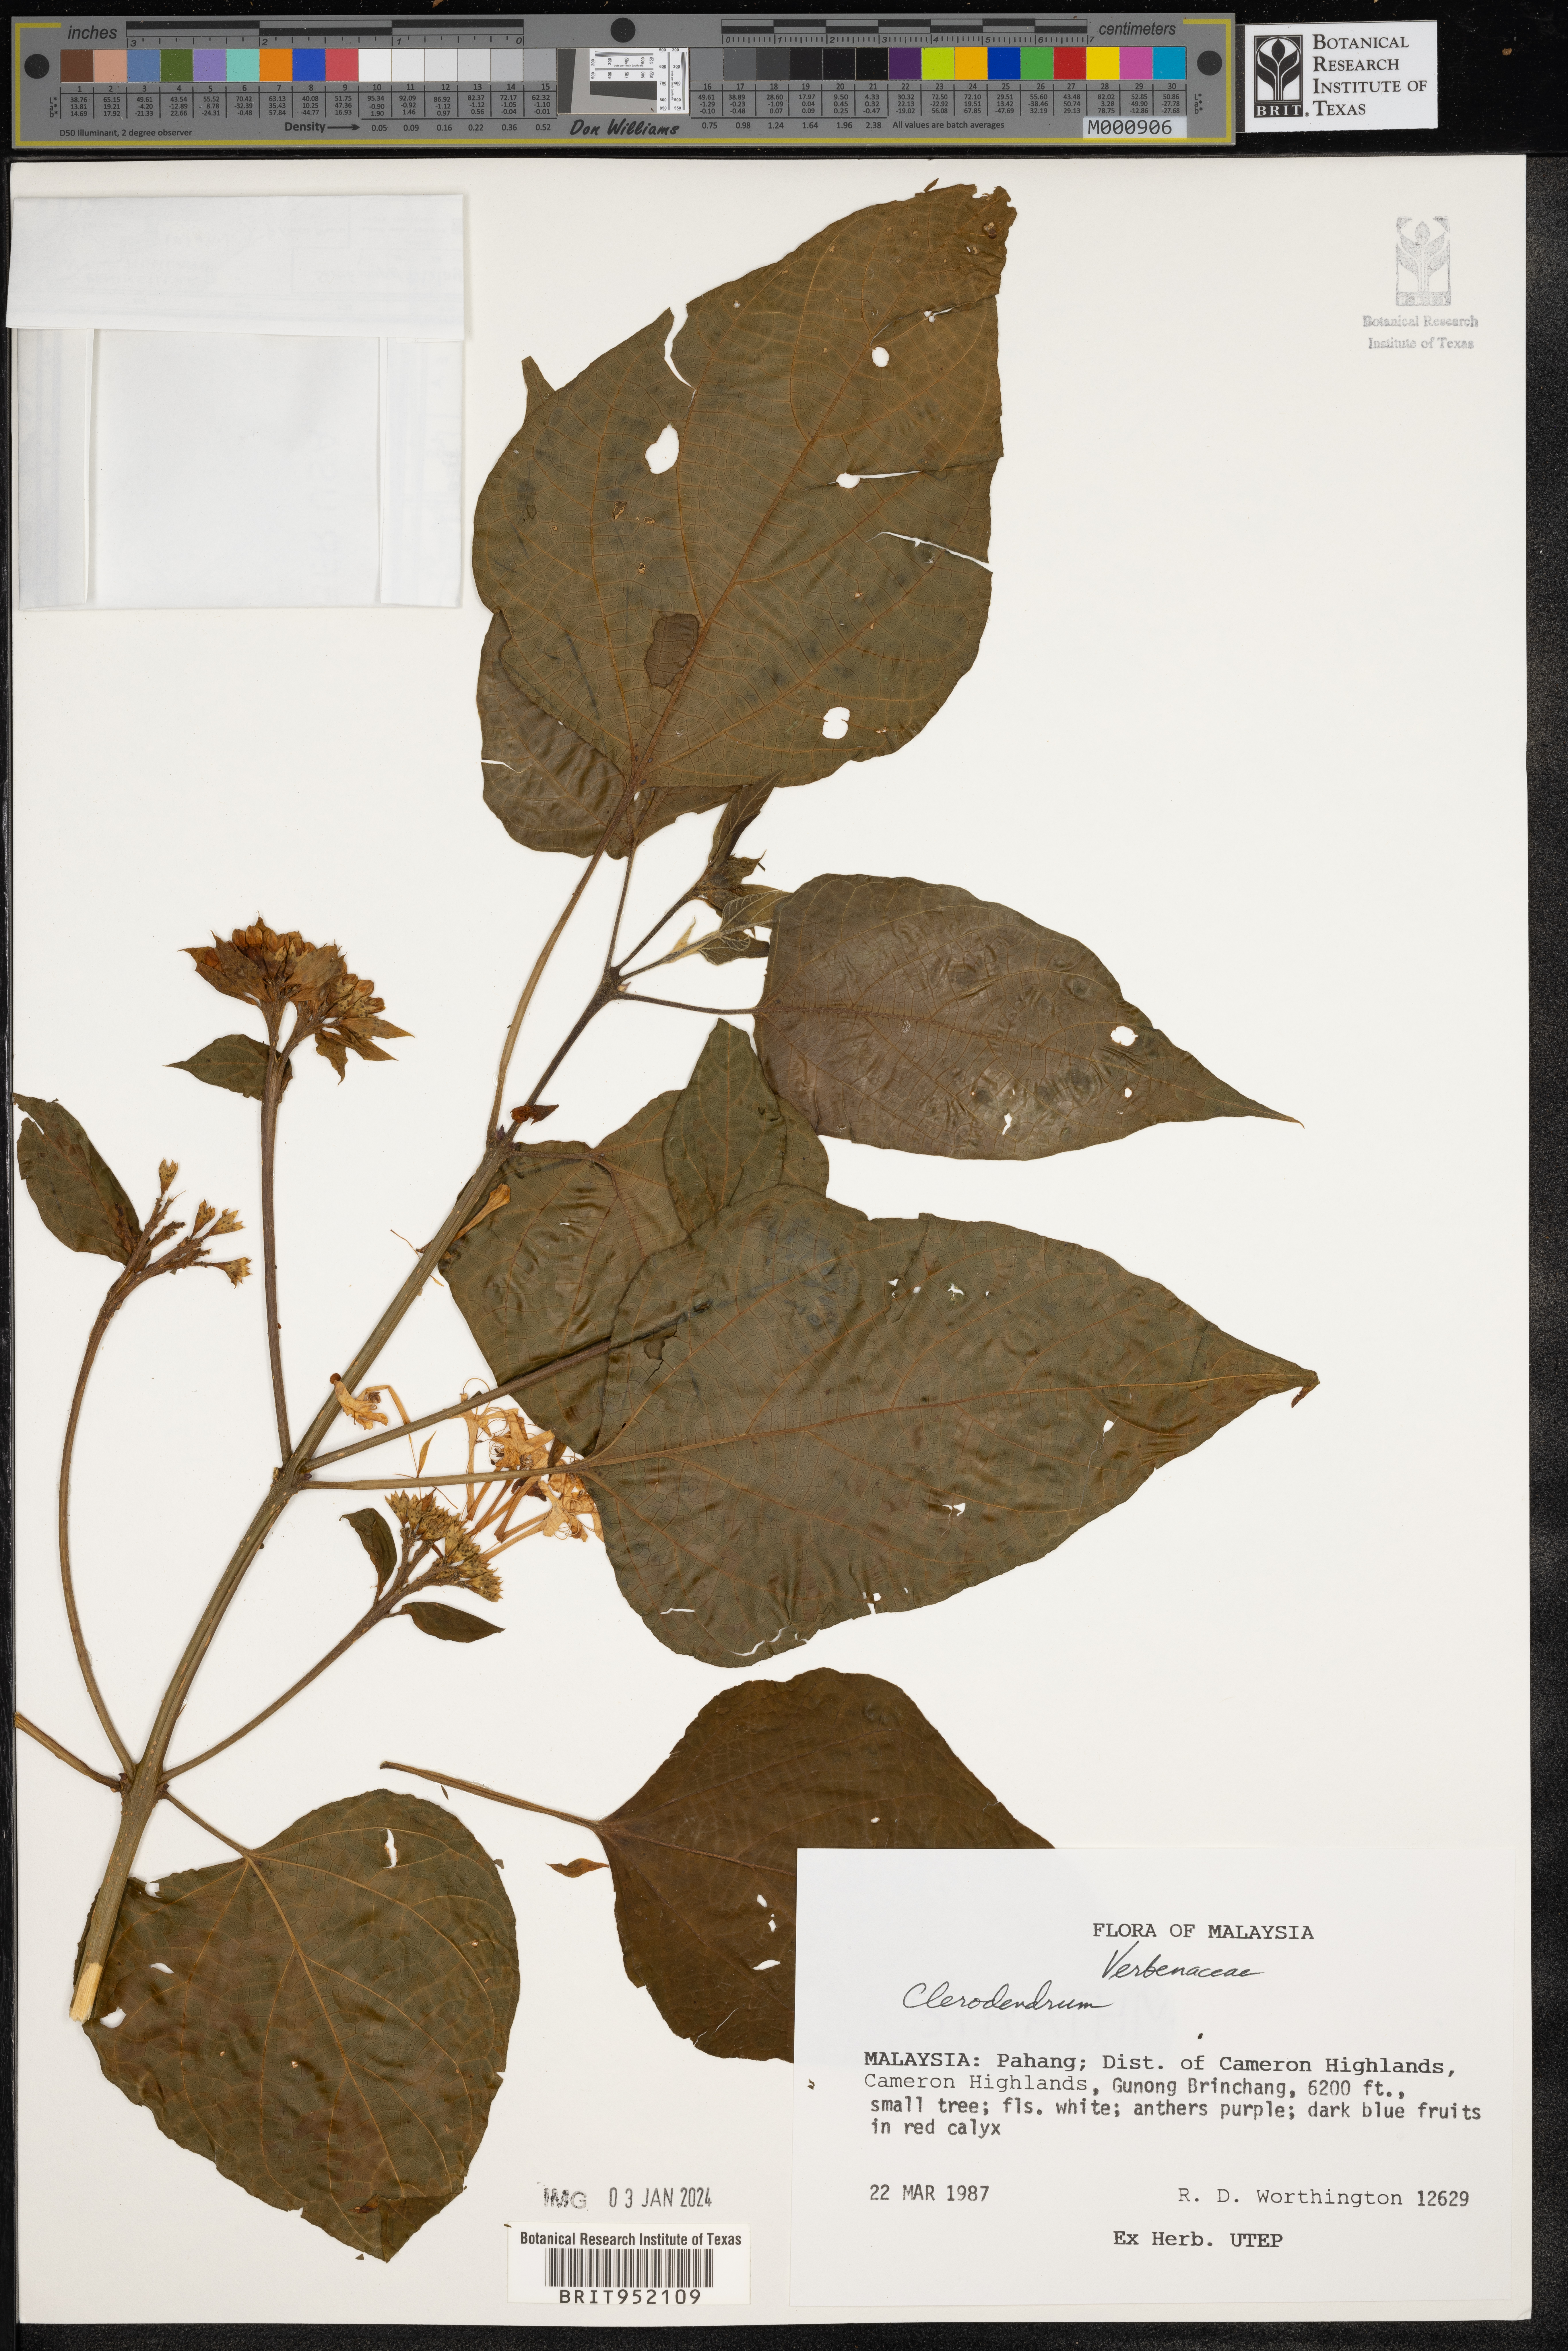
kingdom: Plantae
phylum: Tracheophyta
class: Magnoliopsida
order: Lamiales
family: Lamiaceae
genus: Clerodendrum
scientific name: Clerodendrum
